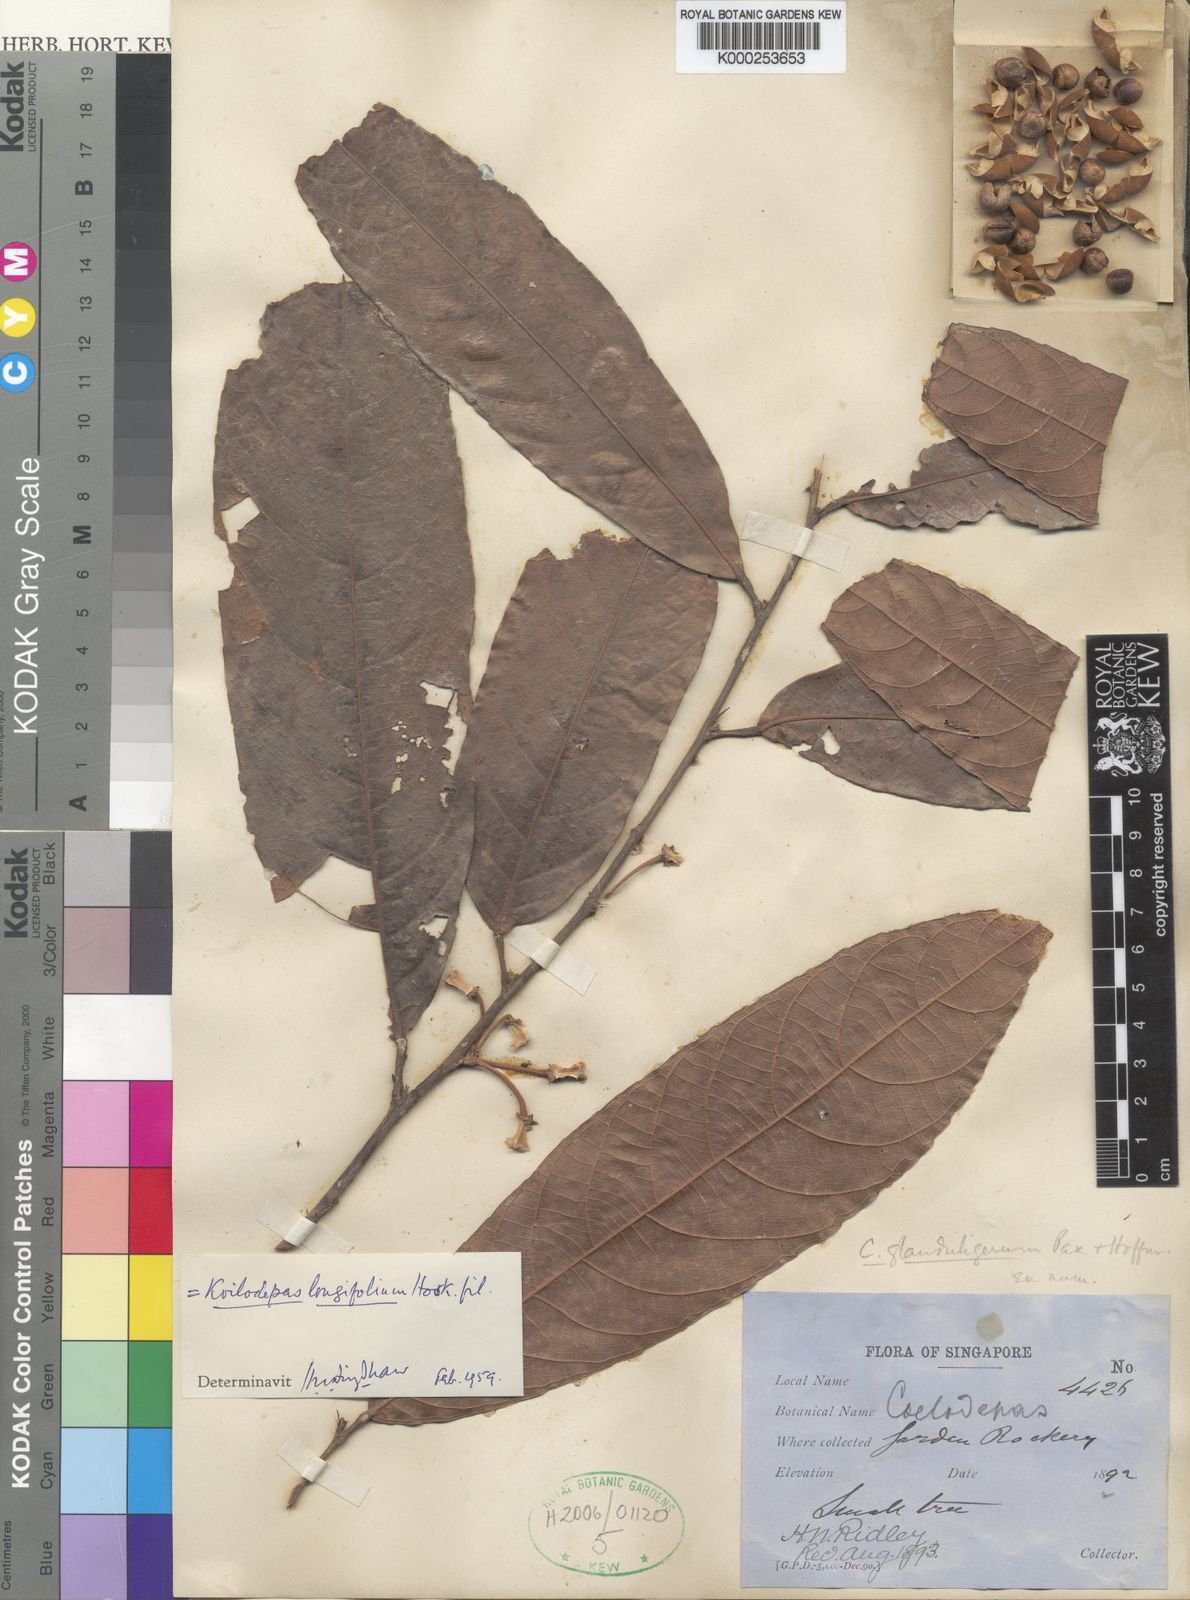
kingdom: Plantae
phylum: Tracheophyta
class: Magnoliopsida
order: Malpighiales
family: Euphorbiaceae
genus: Koilodepas
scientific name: Koilodepas longifolium
